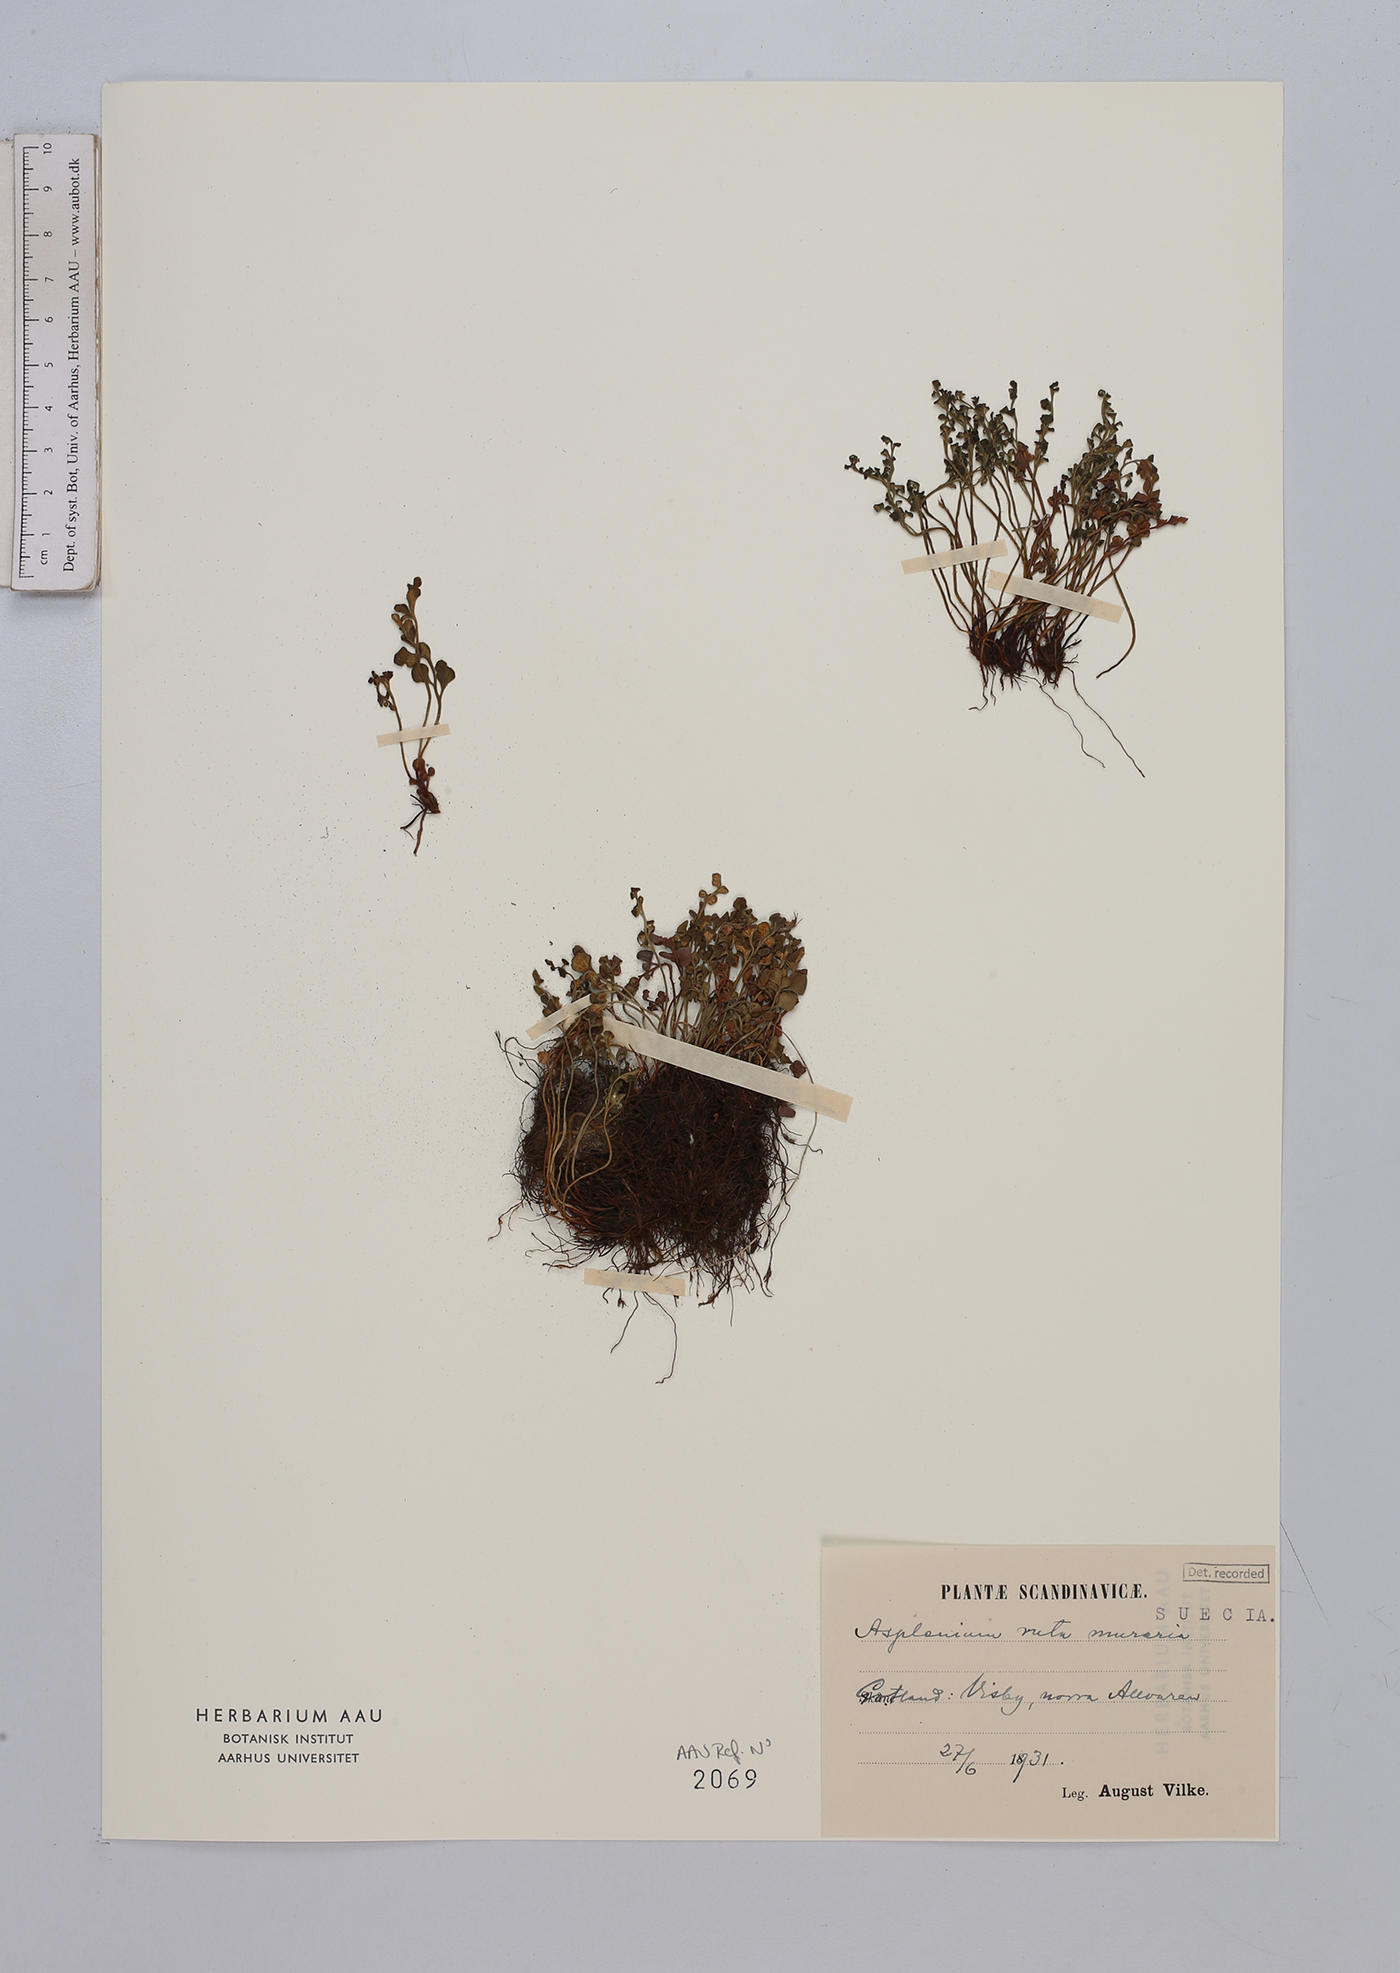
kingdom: Plantae
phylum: Tracheophyta
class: Polypodiopsida
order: Polypodiales
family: Aspleniaceae
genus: Asplenium
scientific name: Asplenium ruta-muraria
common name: Wall-rue
